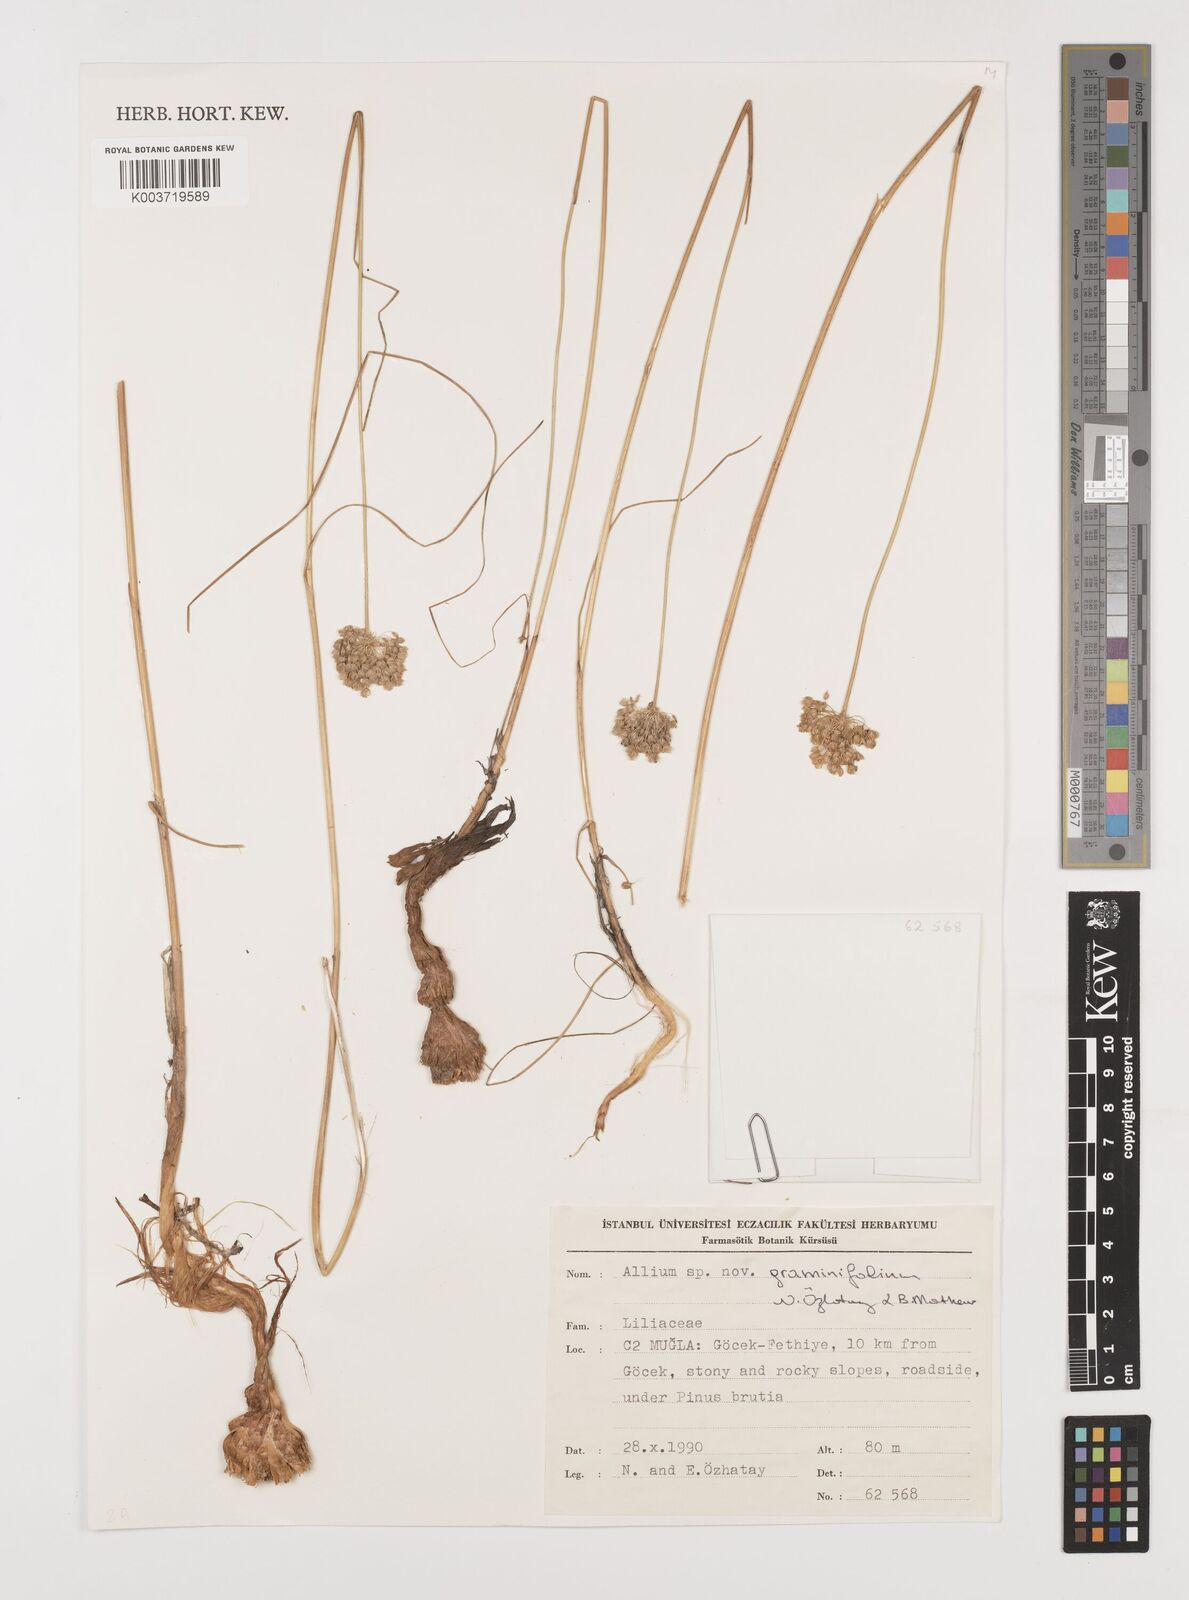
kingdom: Plantae
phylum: Tracheophyta
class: Liliopsida
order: Asparagales
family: Amaryllidaceae
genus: Allium
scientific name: Allium subhirsutum
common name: Hairy garlic
